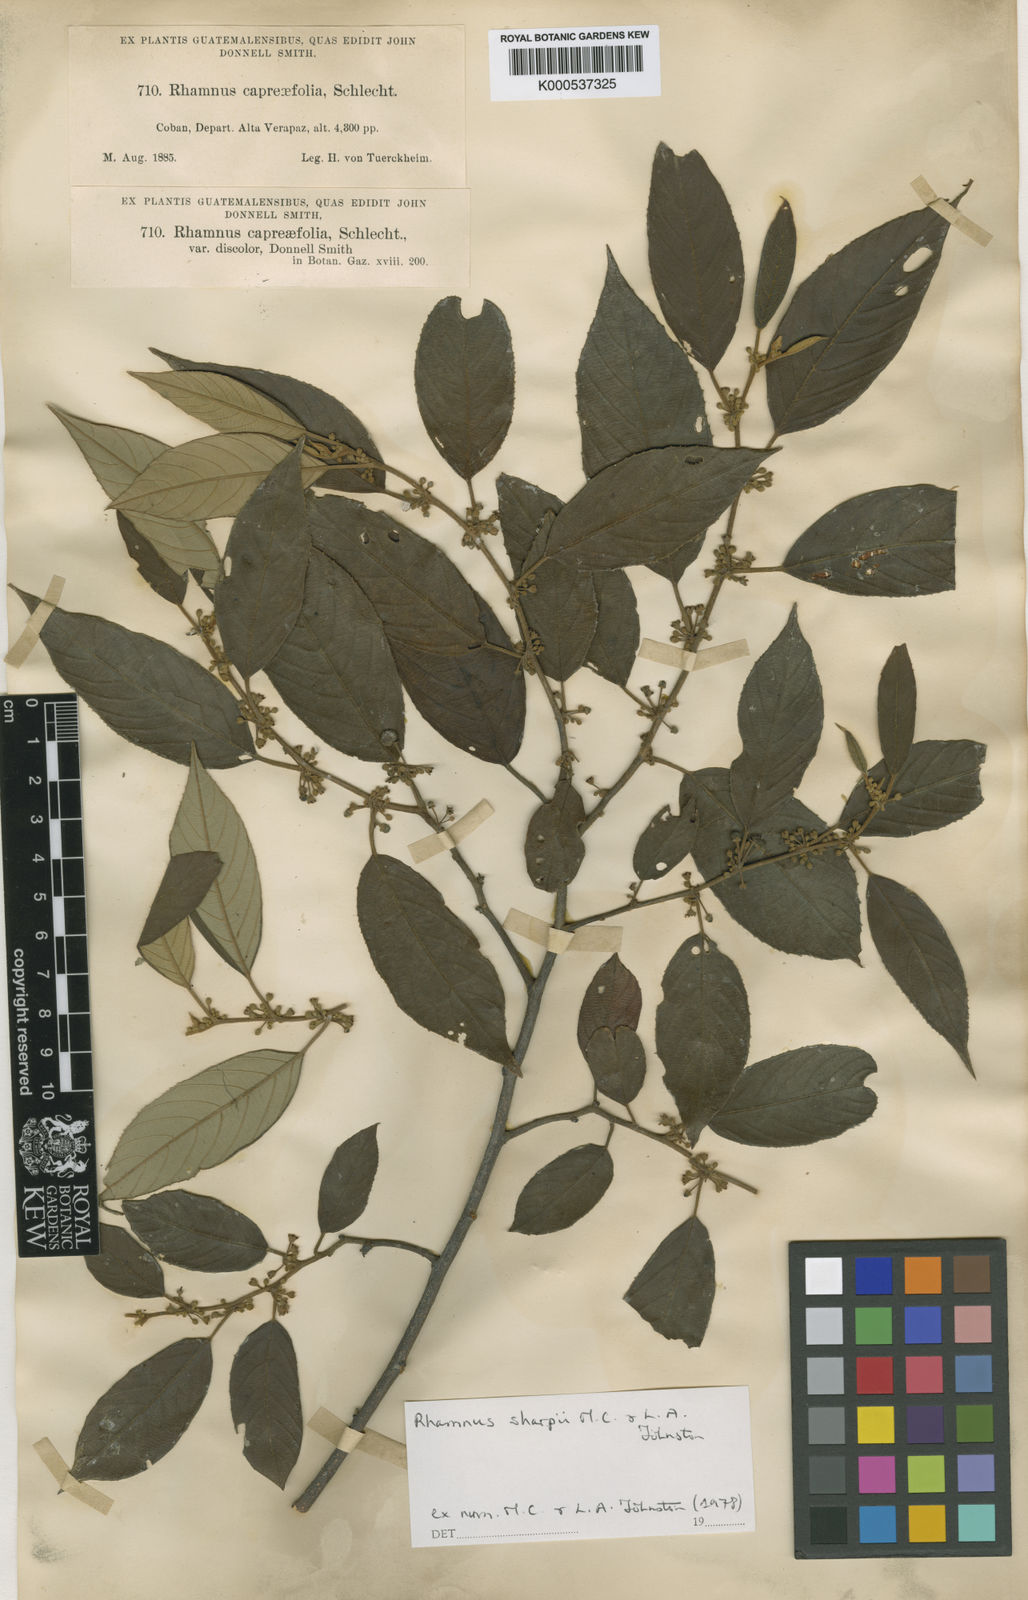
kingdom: Plantae
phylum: Tracheophyta
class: Magnoliopsida
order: Rosales
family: Rhamnaceae
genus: Frangula
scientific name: Frangula discolor
